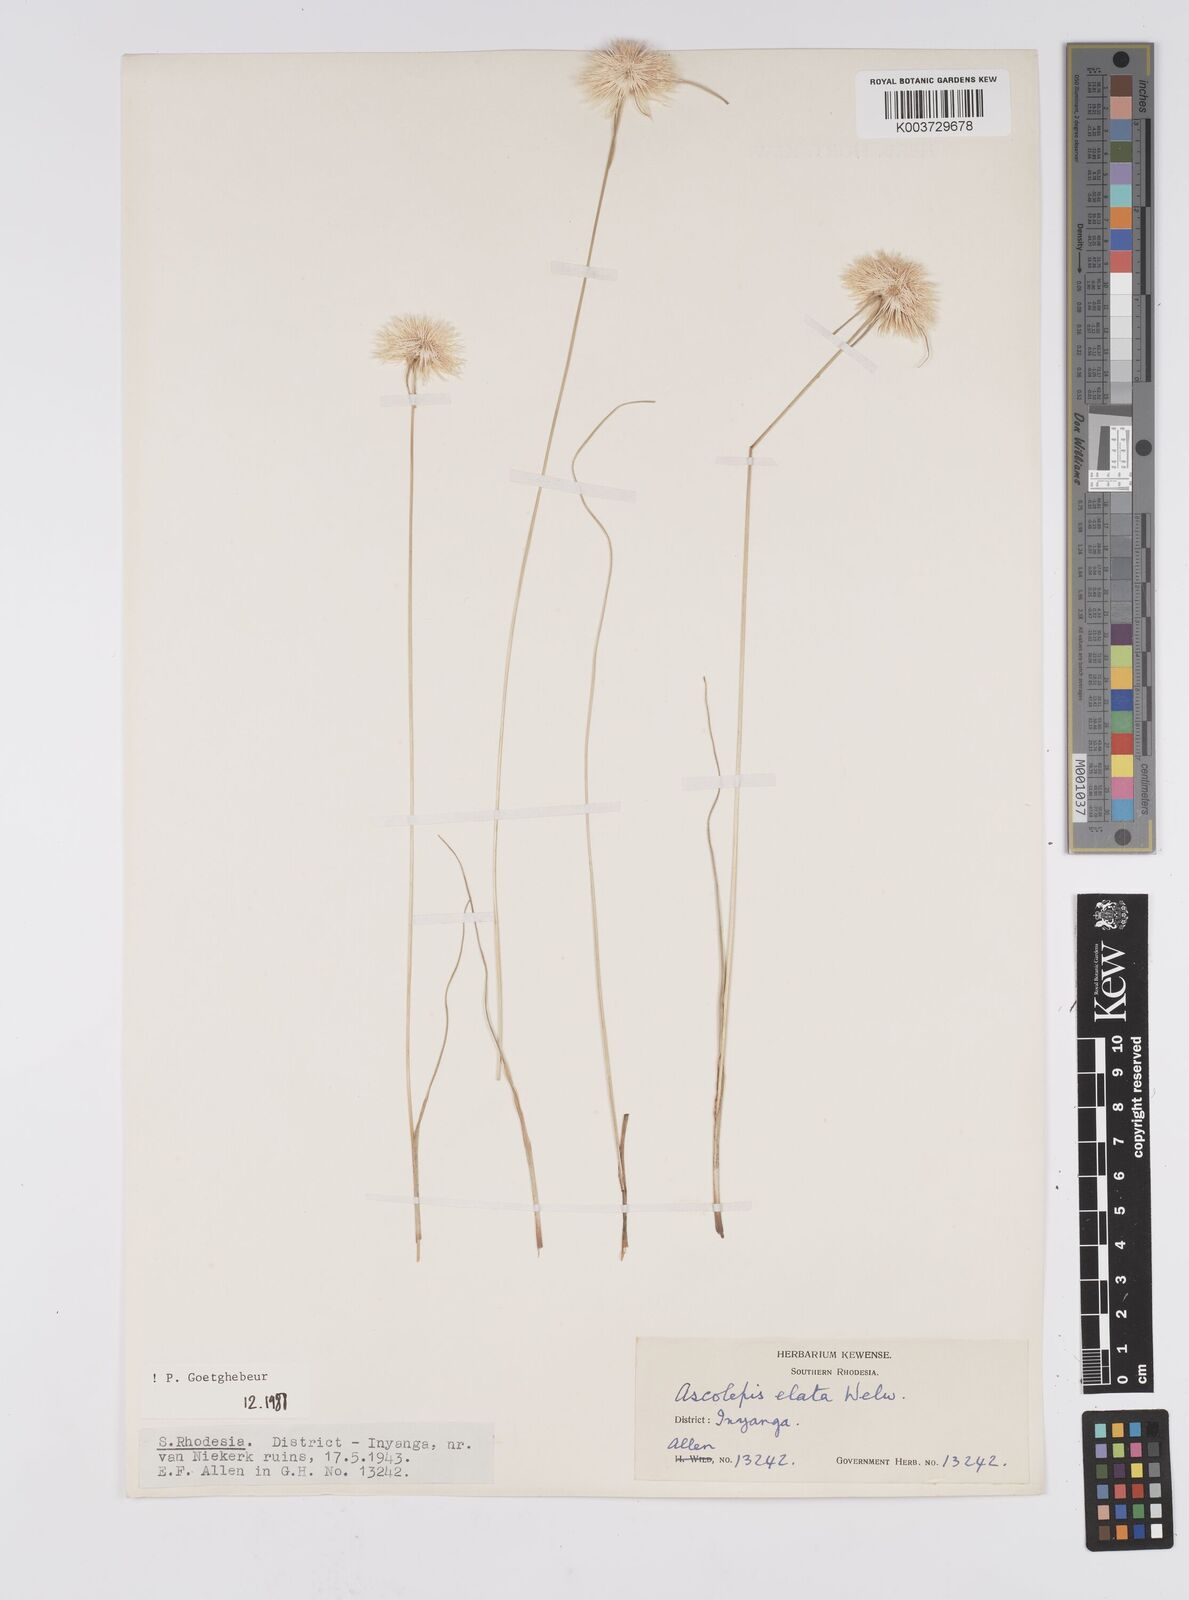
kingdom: Plantae
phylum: Tracheophyta
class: Liliopsida
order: Poales
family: Cyperaceae
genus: Cyperus
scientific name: Cyperus
